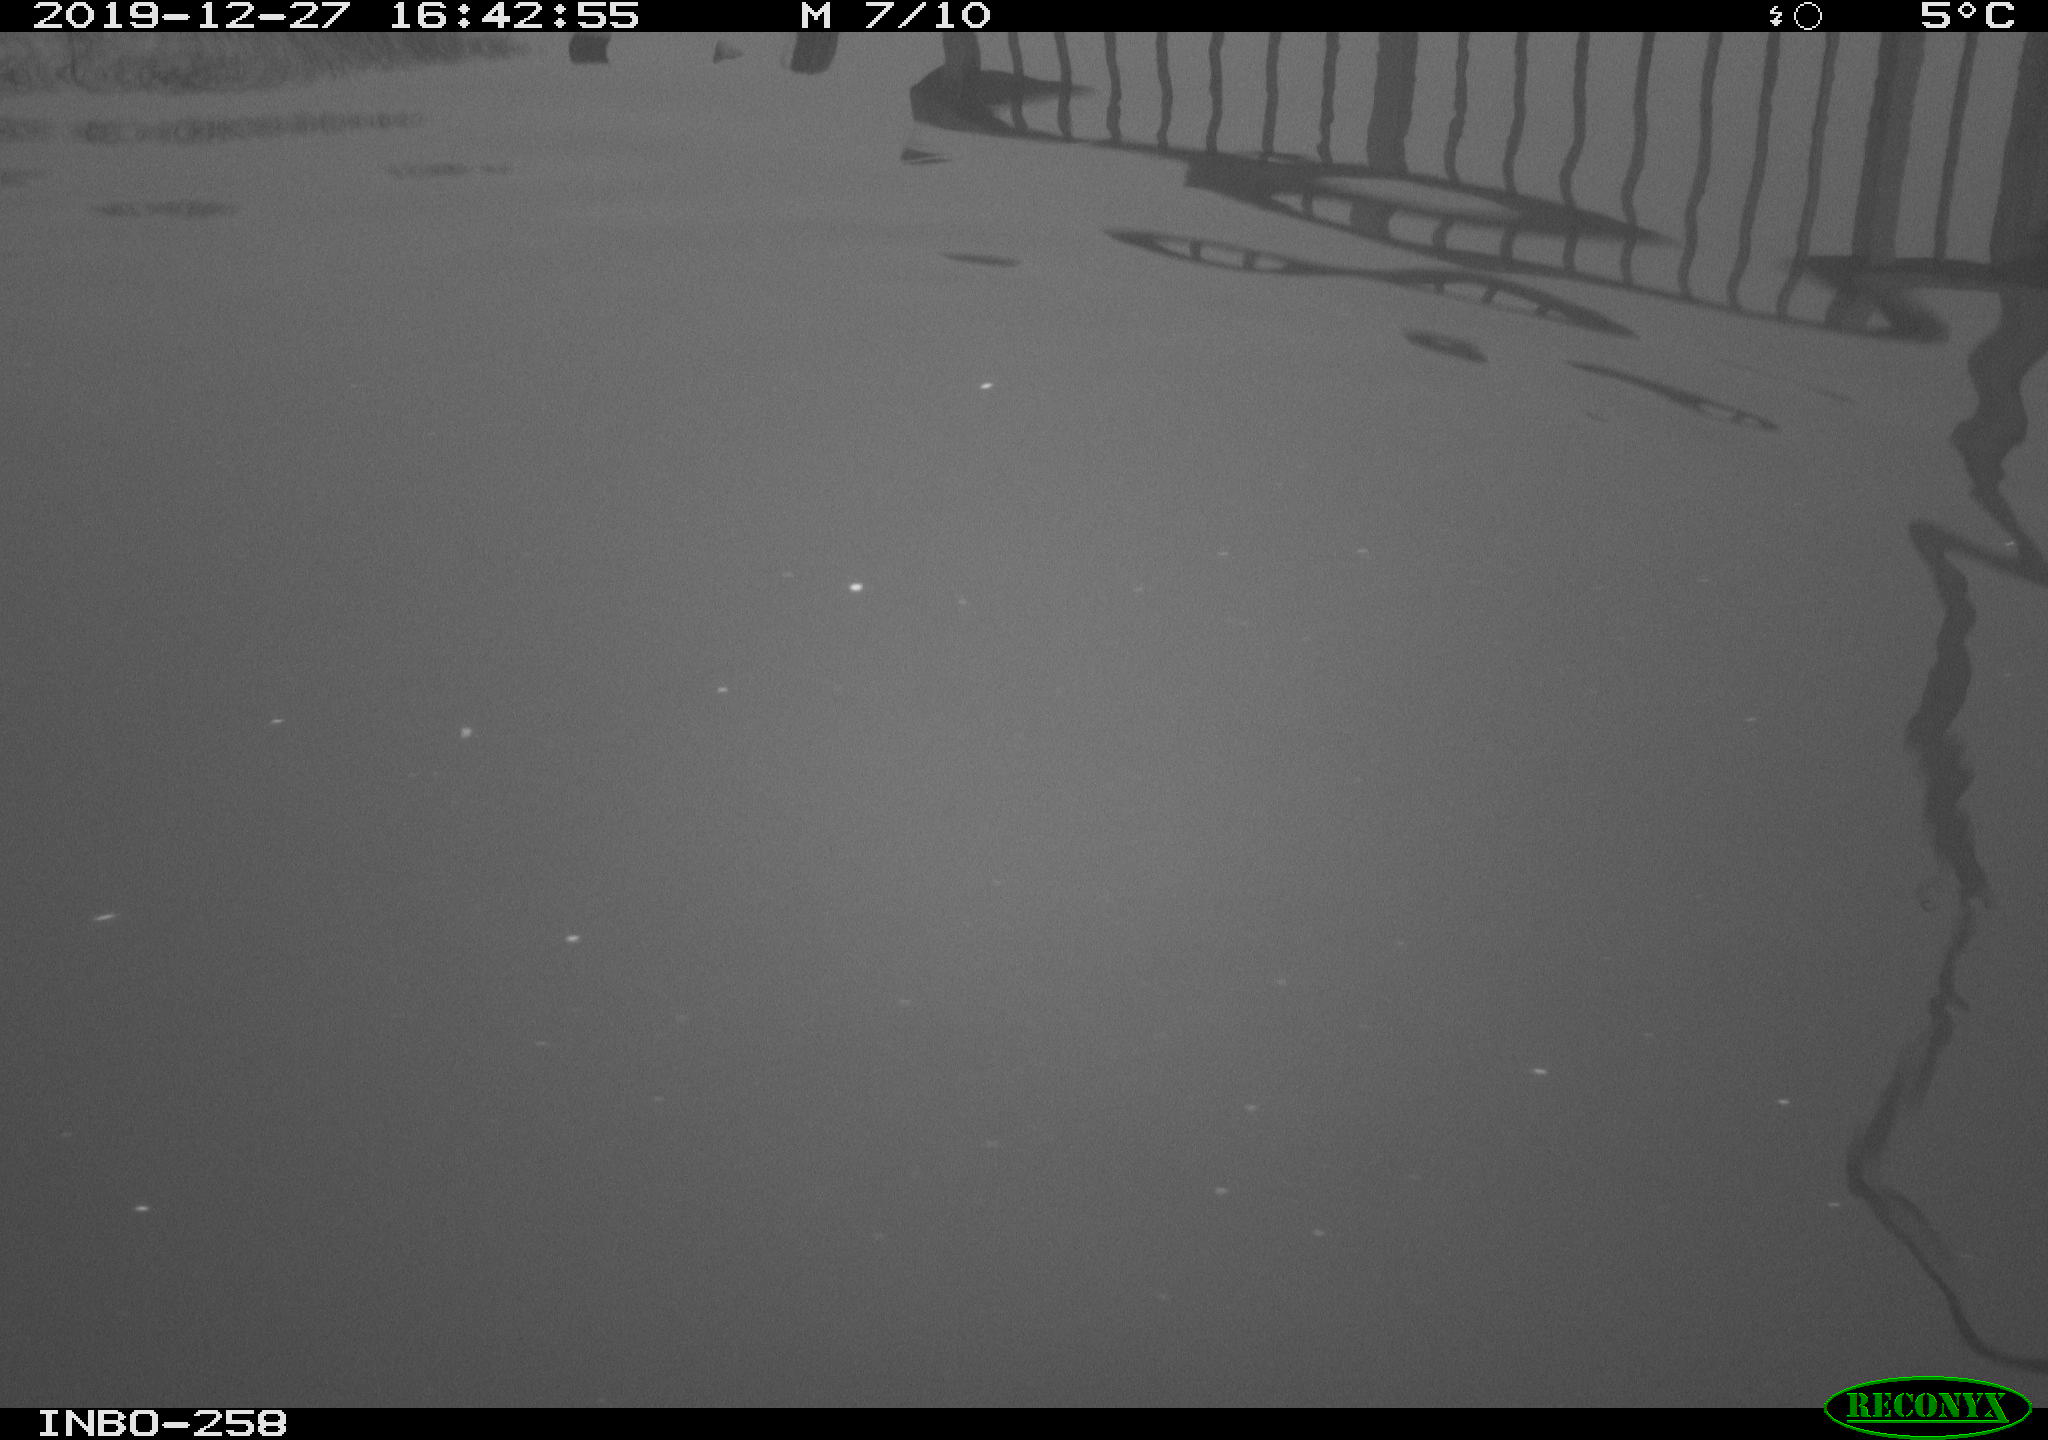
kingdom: Animalia
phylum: Chordata
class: Aves
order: Gruiformes
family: Rallidae
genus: Gallinula
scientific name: Gallinula chloropus
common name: Common moorhen
